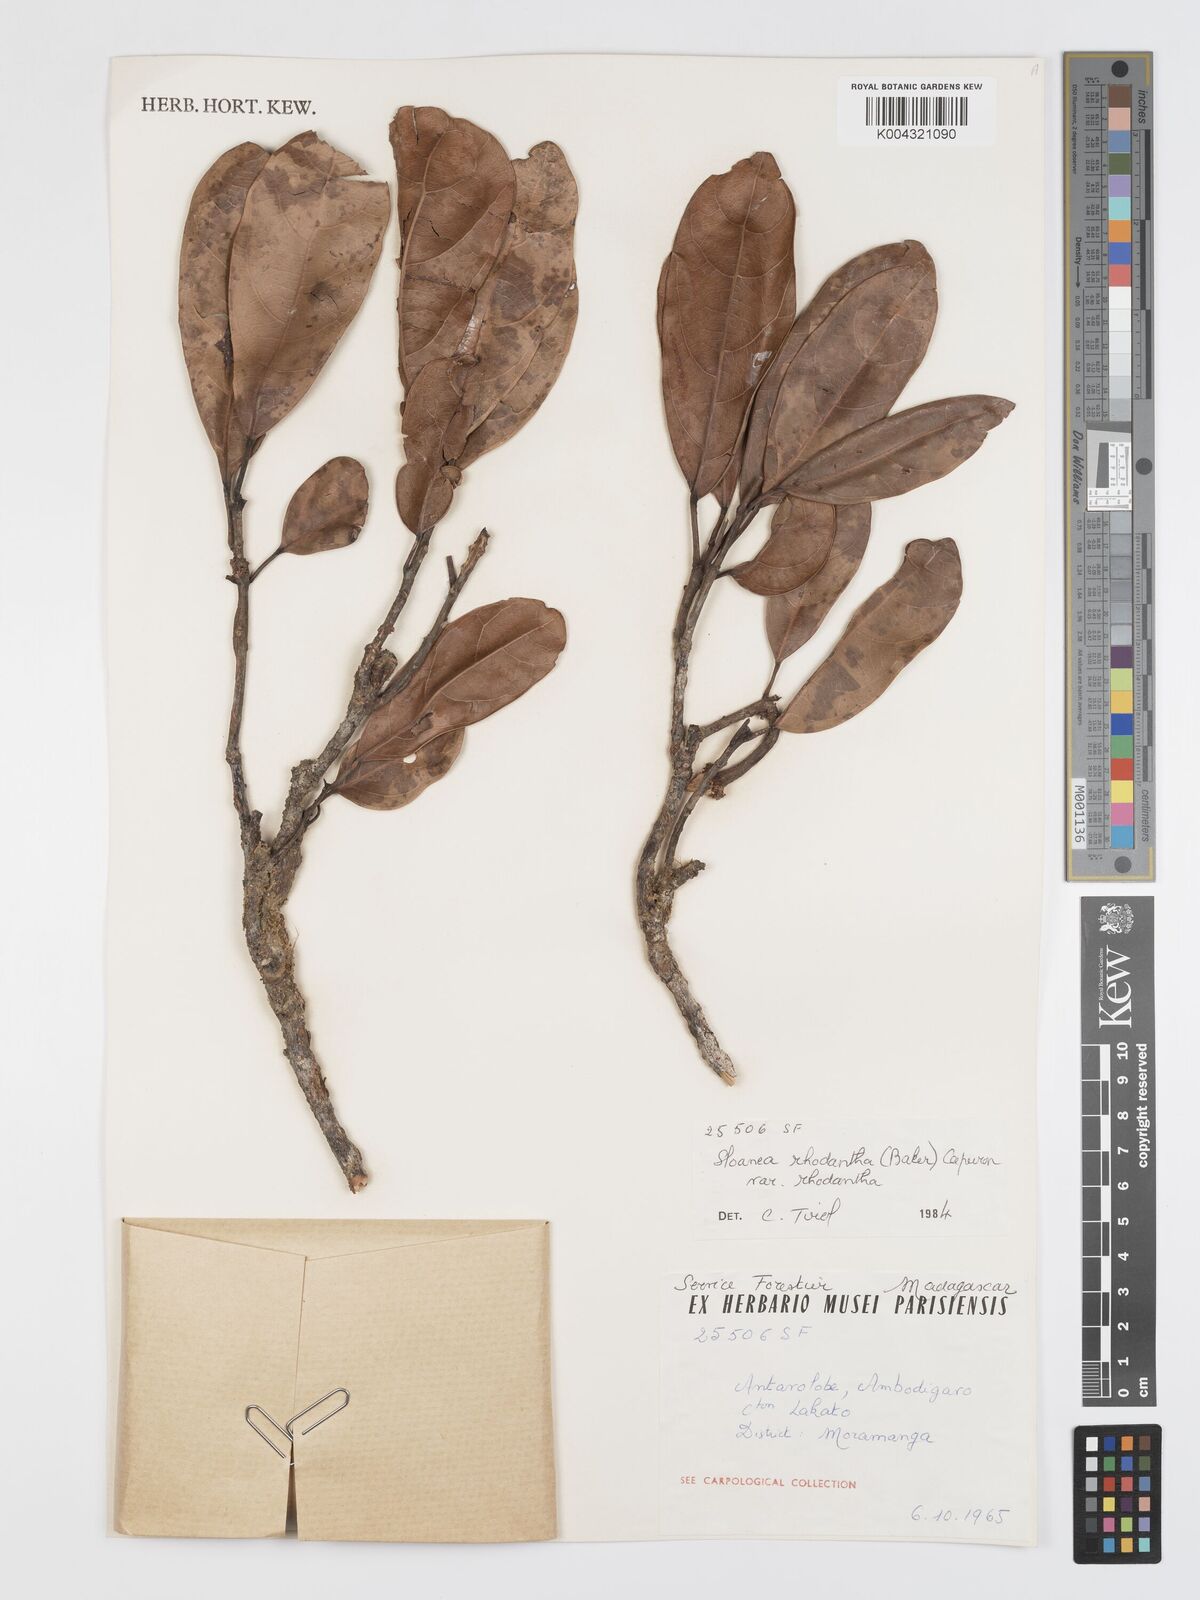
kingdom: Plantae
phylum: Tracheophyta
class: Magnoliopsida
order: Oxalidales
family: Elaeocarpaceae
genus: Sloanea
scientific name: Sloanea rhodantha
